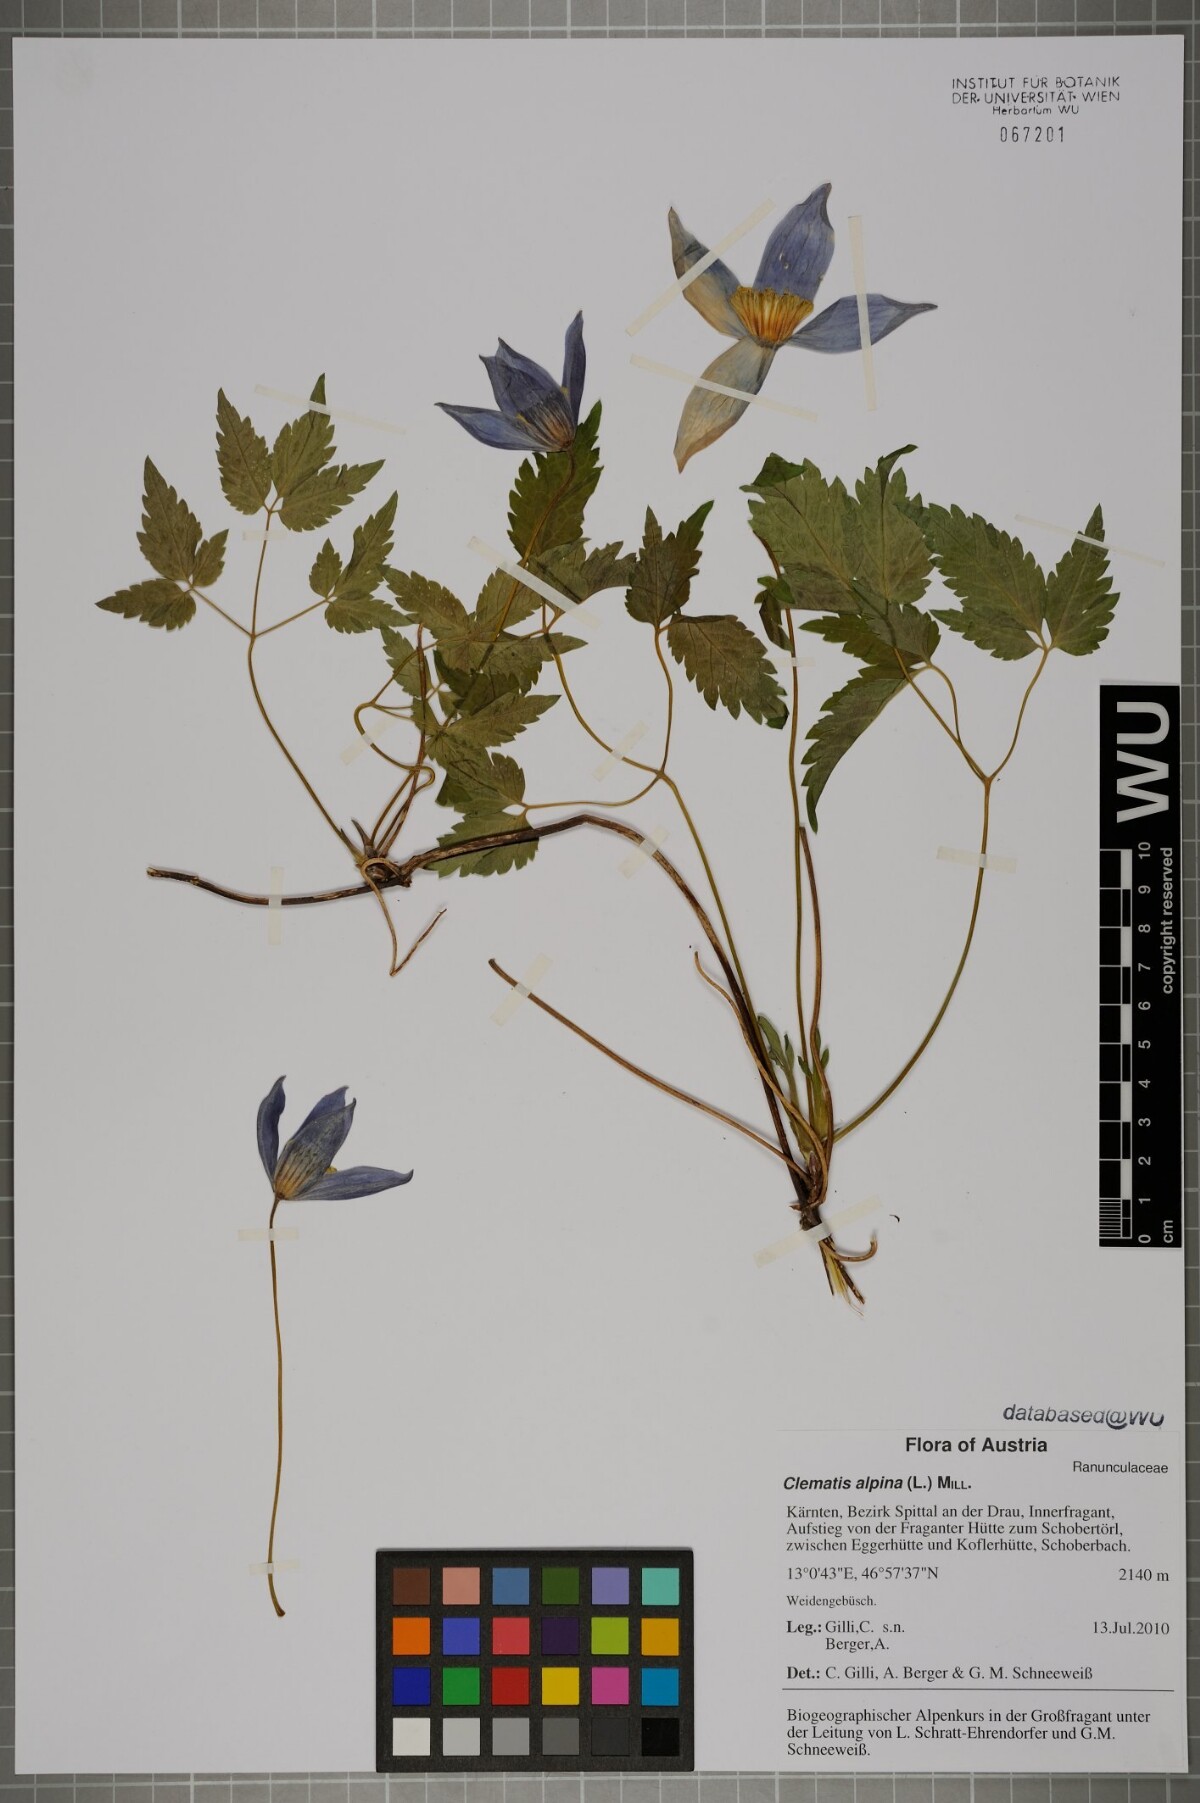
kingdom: Plantae
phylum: Tracheophyta
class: Magnoliopsida
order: Ranunculales
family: Ranunculaceae
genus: Clematis
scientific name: Clematis alpina
